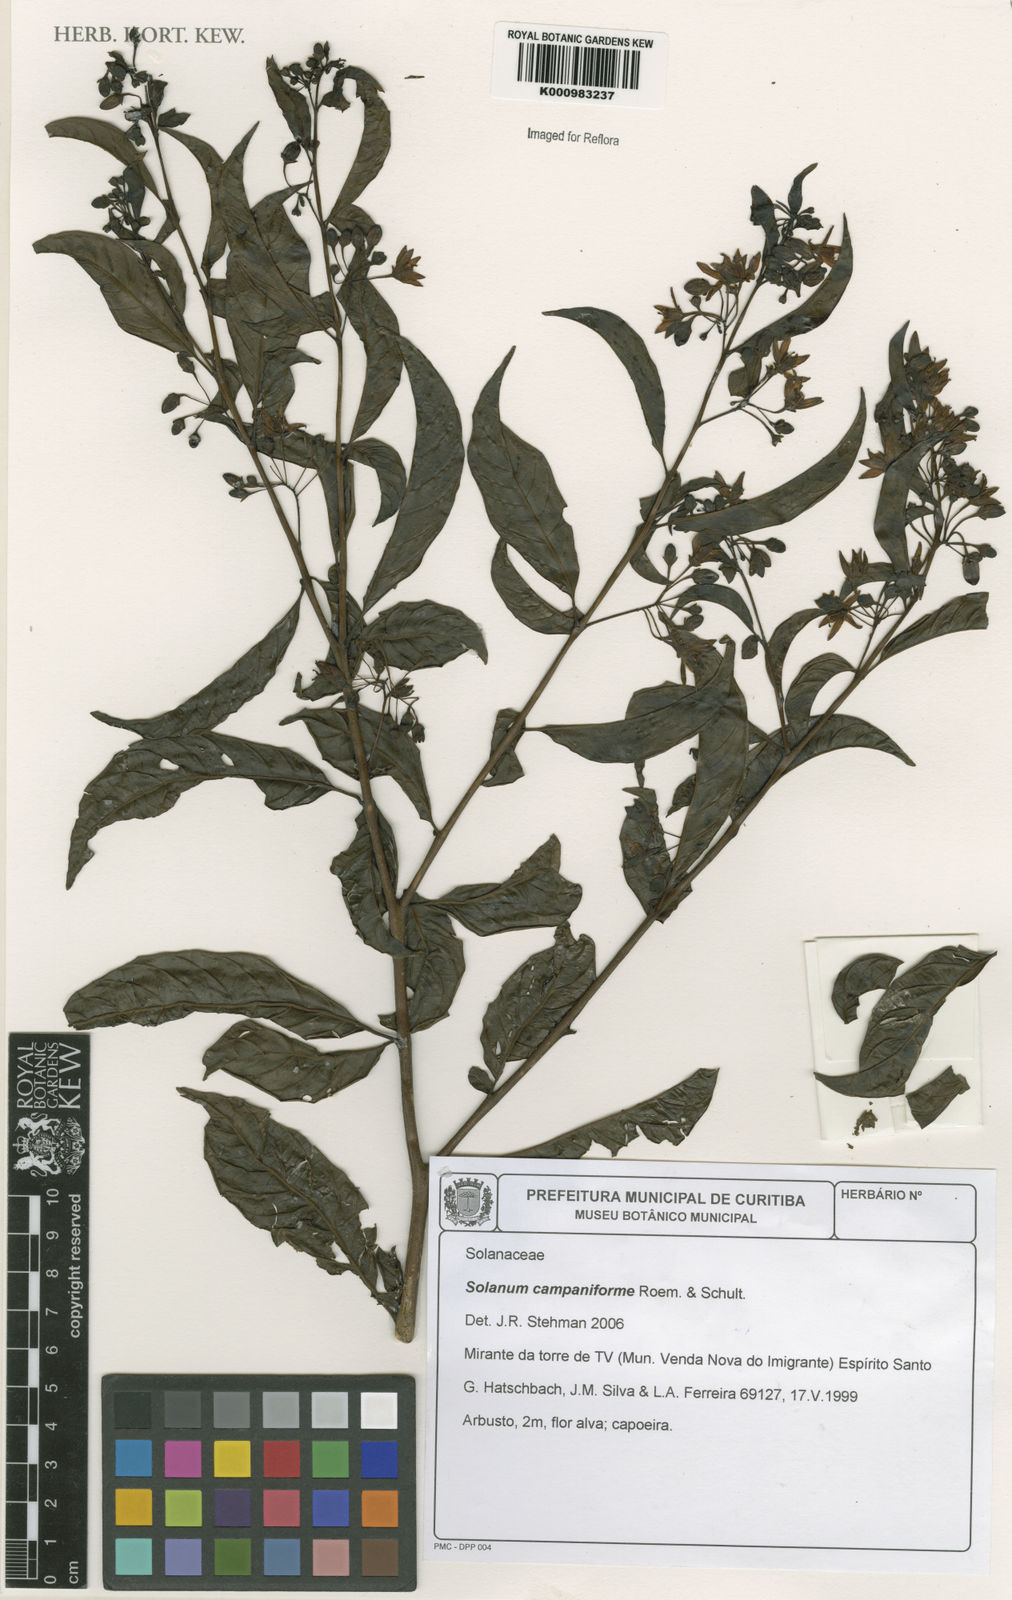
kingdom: Plantae
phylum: Tracheophyta
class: Magnoliopsida
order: Solanales
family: Solanaceae
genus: Solanum
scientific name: Solanum campaniforme
